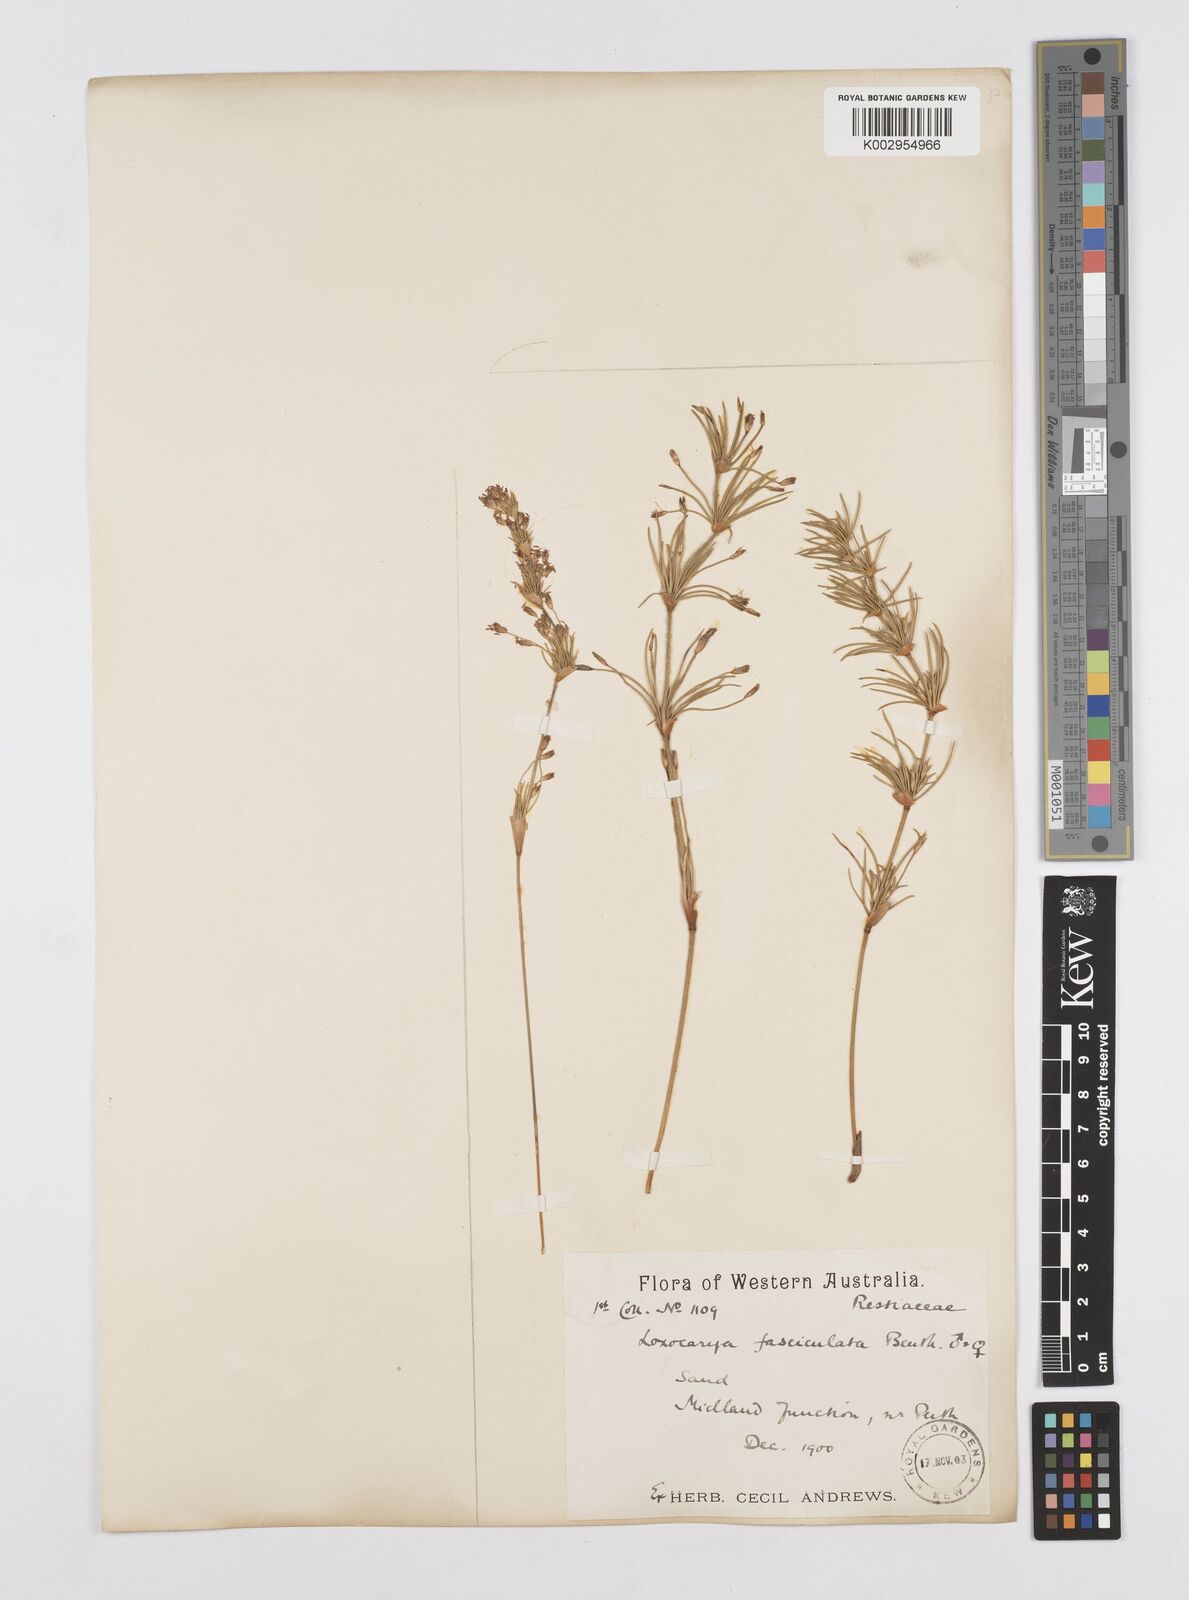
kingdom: Plantae
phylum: Tracheophyta
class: Liliopsida
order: Poales
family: Restionaceae
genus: Desmocladus
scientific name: Desmocladus fasciculatus
